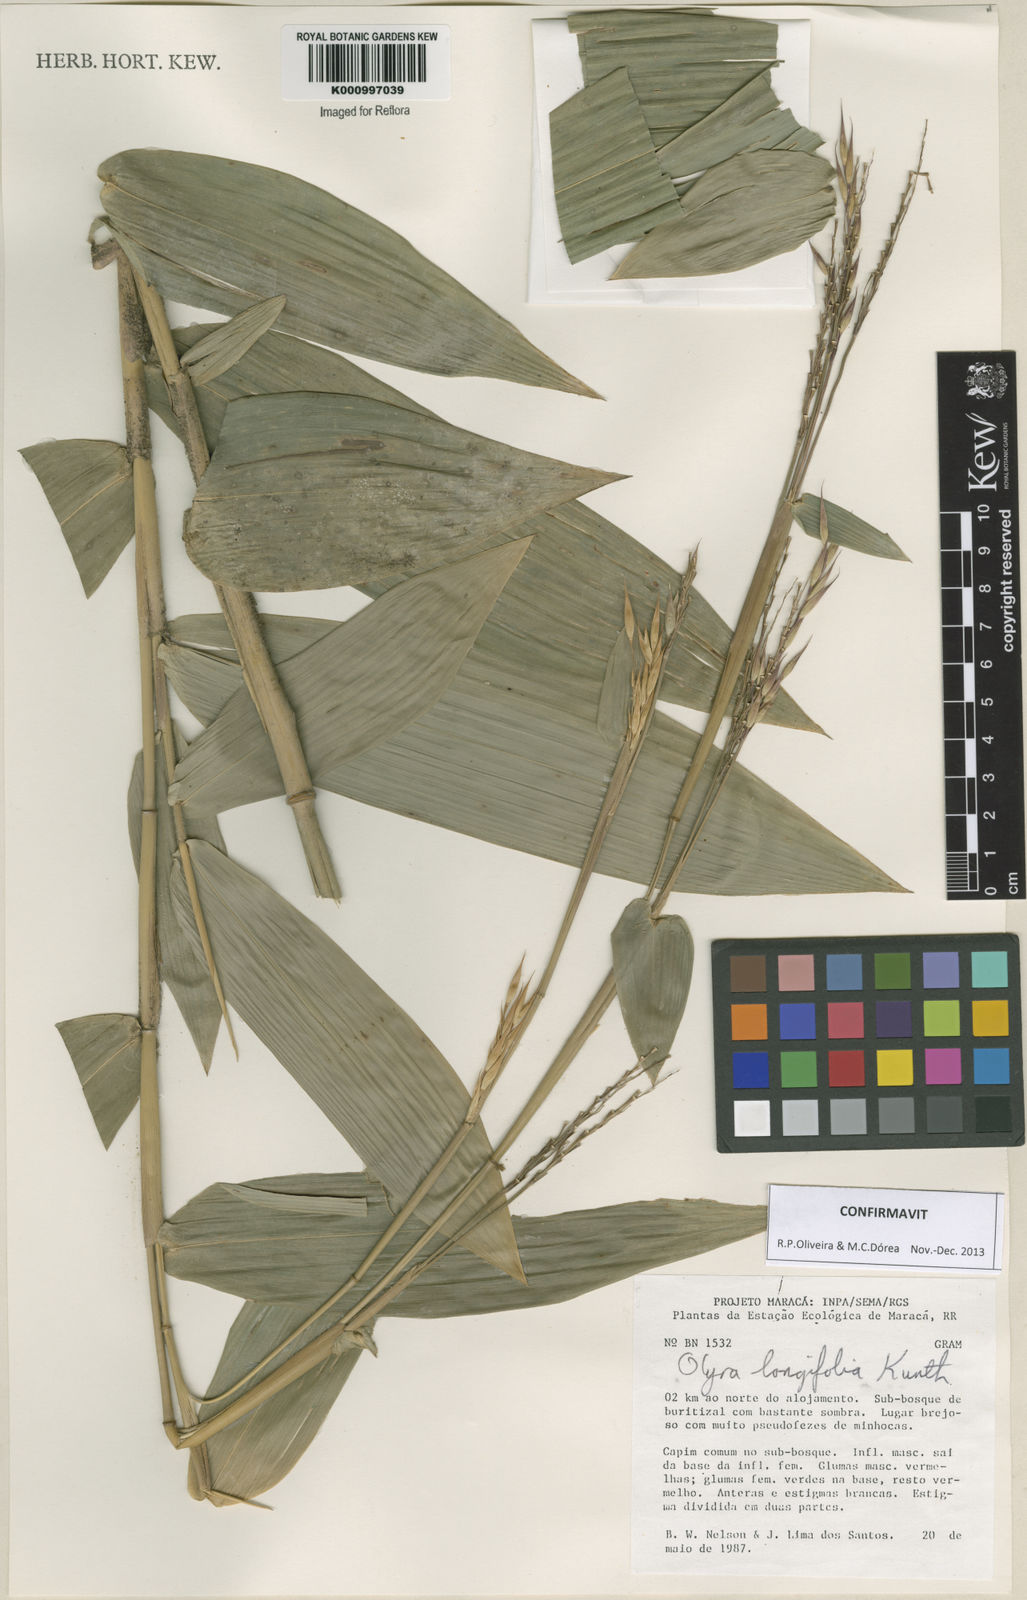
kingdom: Plantae
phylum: Tracheophyta
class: Liliopsida
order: Poales
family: Poaceae
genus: Olyra
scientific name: Olyra longifolia
